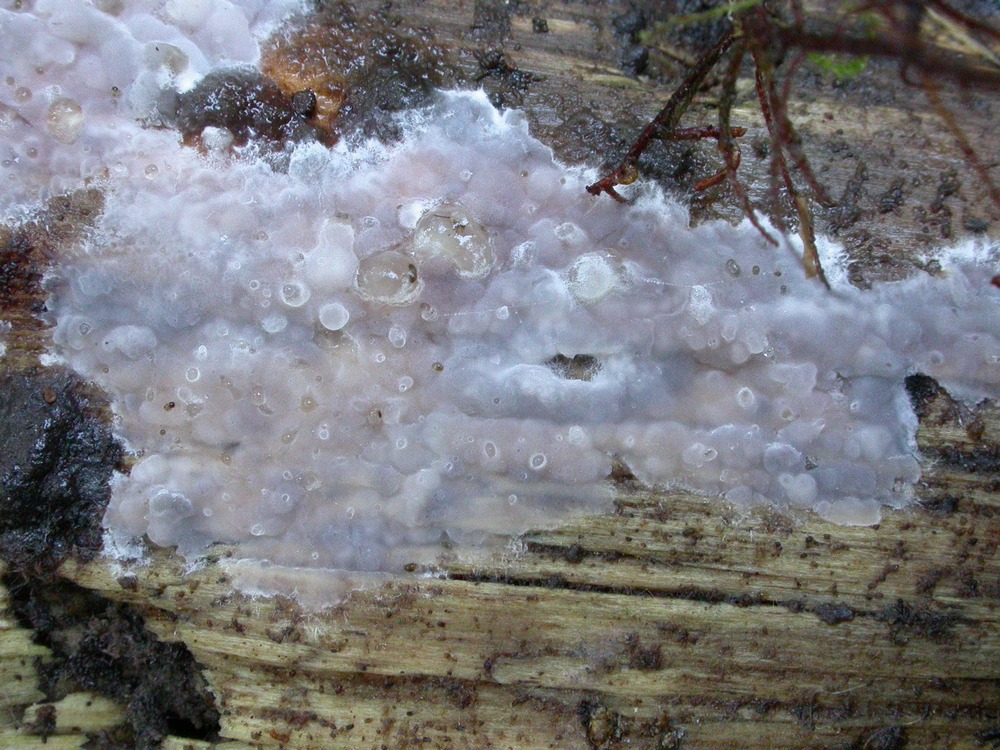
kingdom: Fungi
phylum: Basidiomycota
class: Tremellomycetes
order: Tremellales
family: Exidiaceae
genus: Exidiopsis
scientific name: Exidiopsis effusa
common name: smuk bævrehinde
